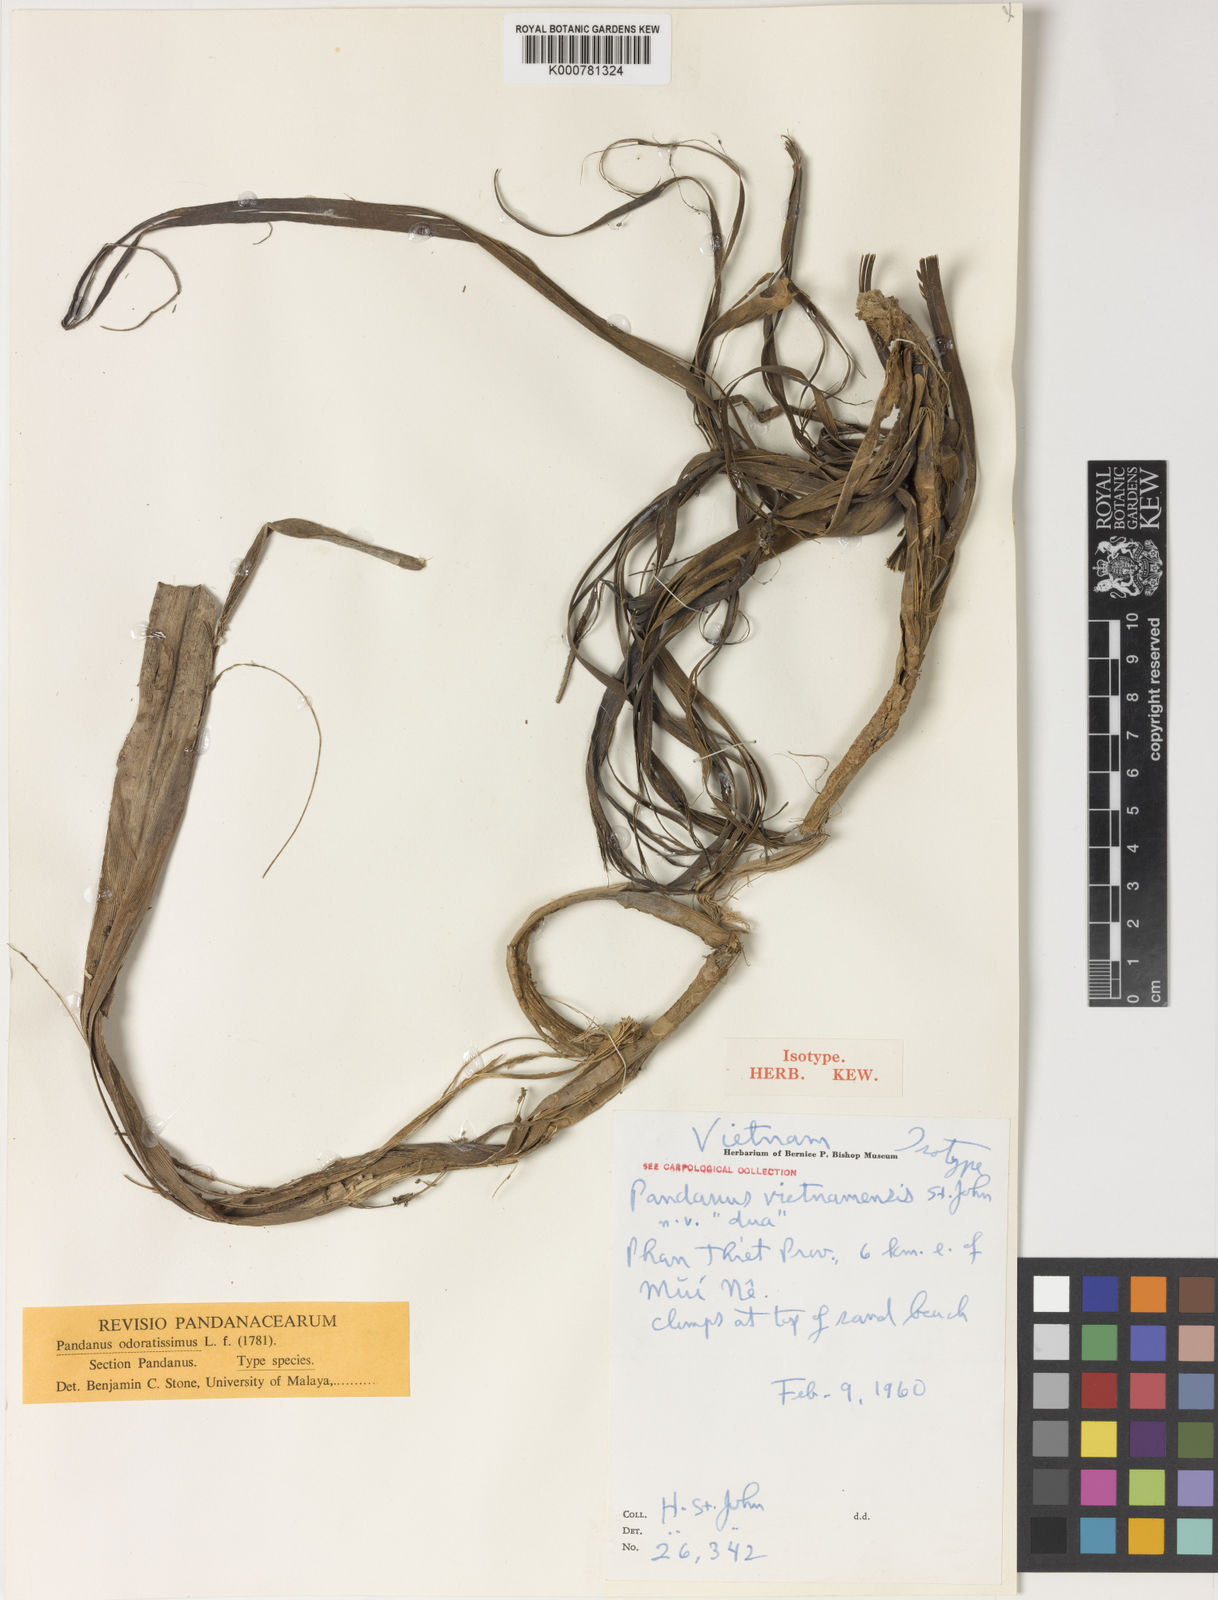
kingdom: Plantae
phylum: Tracheophyta
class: Liliopsida
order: Pandanales
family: Pandanaceae
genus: Pandanus
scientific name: Pandanus odorifer
